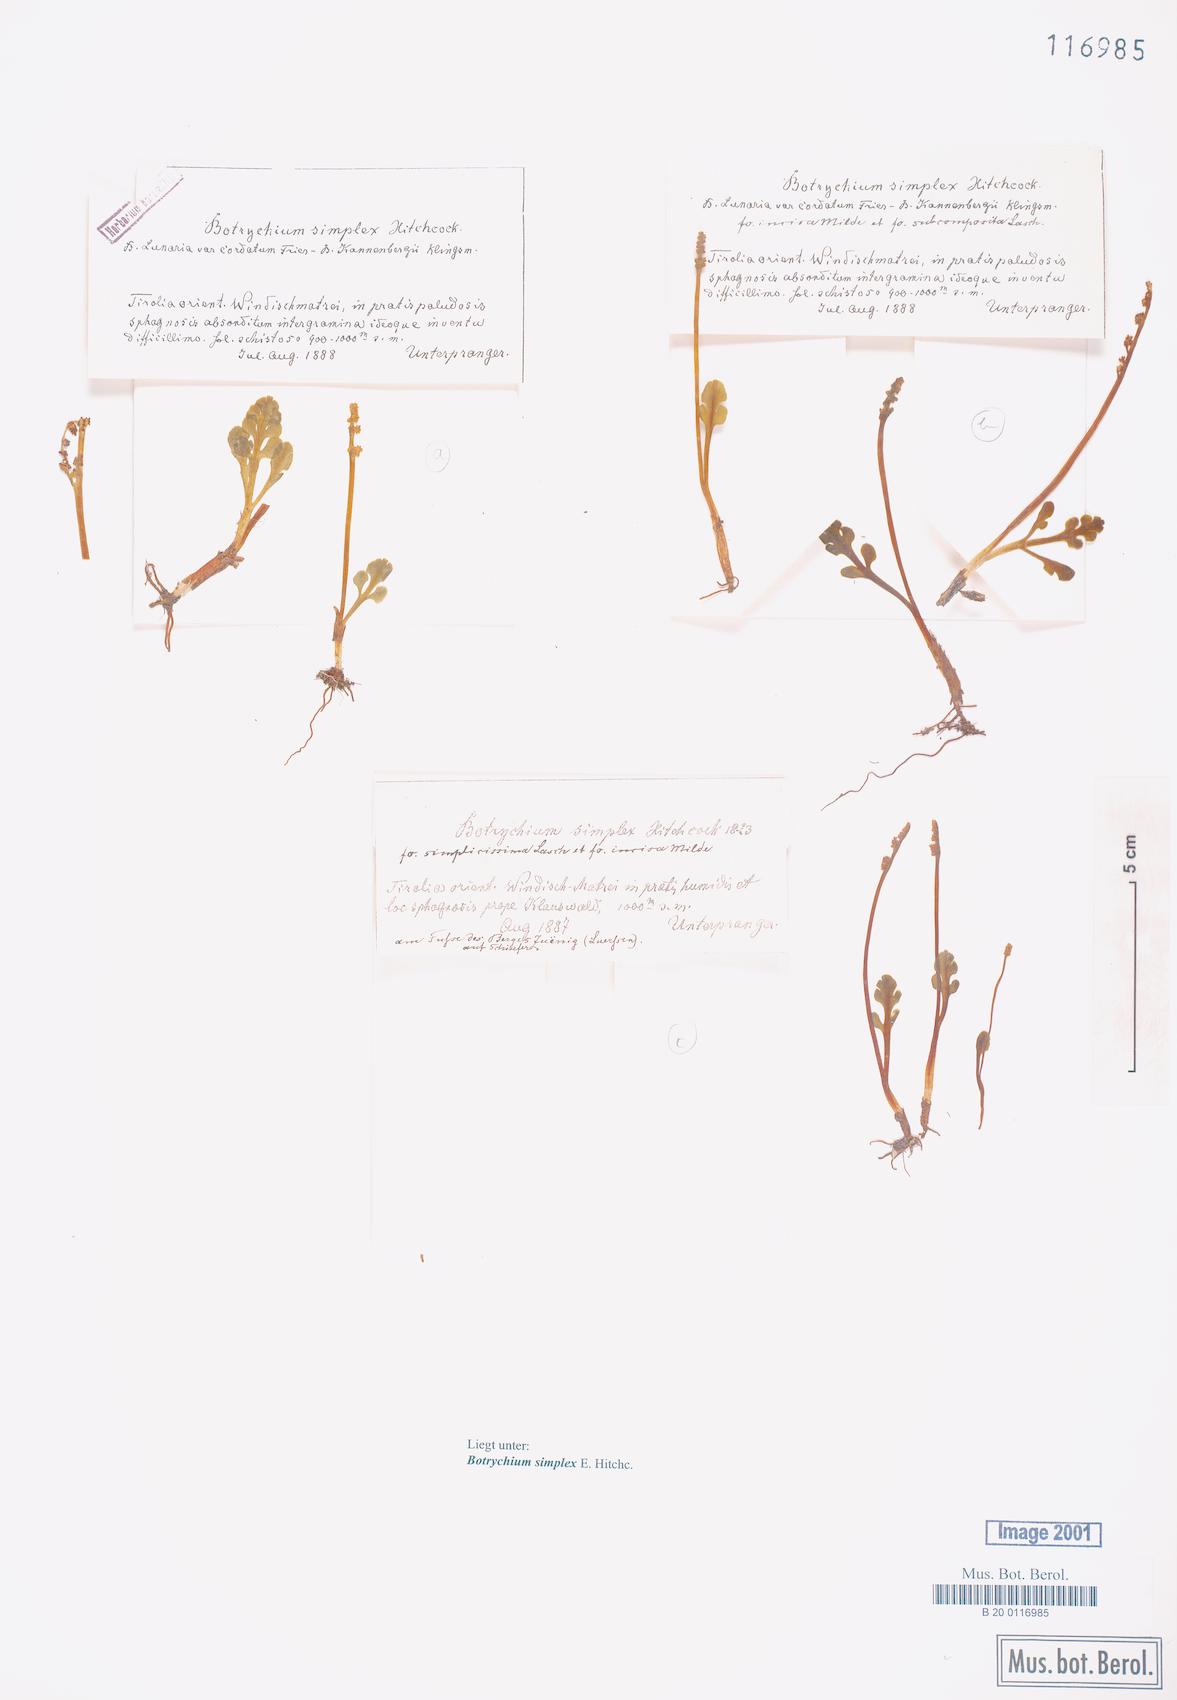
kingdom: Plantae
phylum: Tracheophyta
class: Polypodiopsida
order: Ophioglossales
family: Ophioglossaceae
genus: Botrychium
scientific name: Botrychium simplex
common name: Least moonwort
